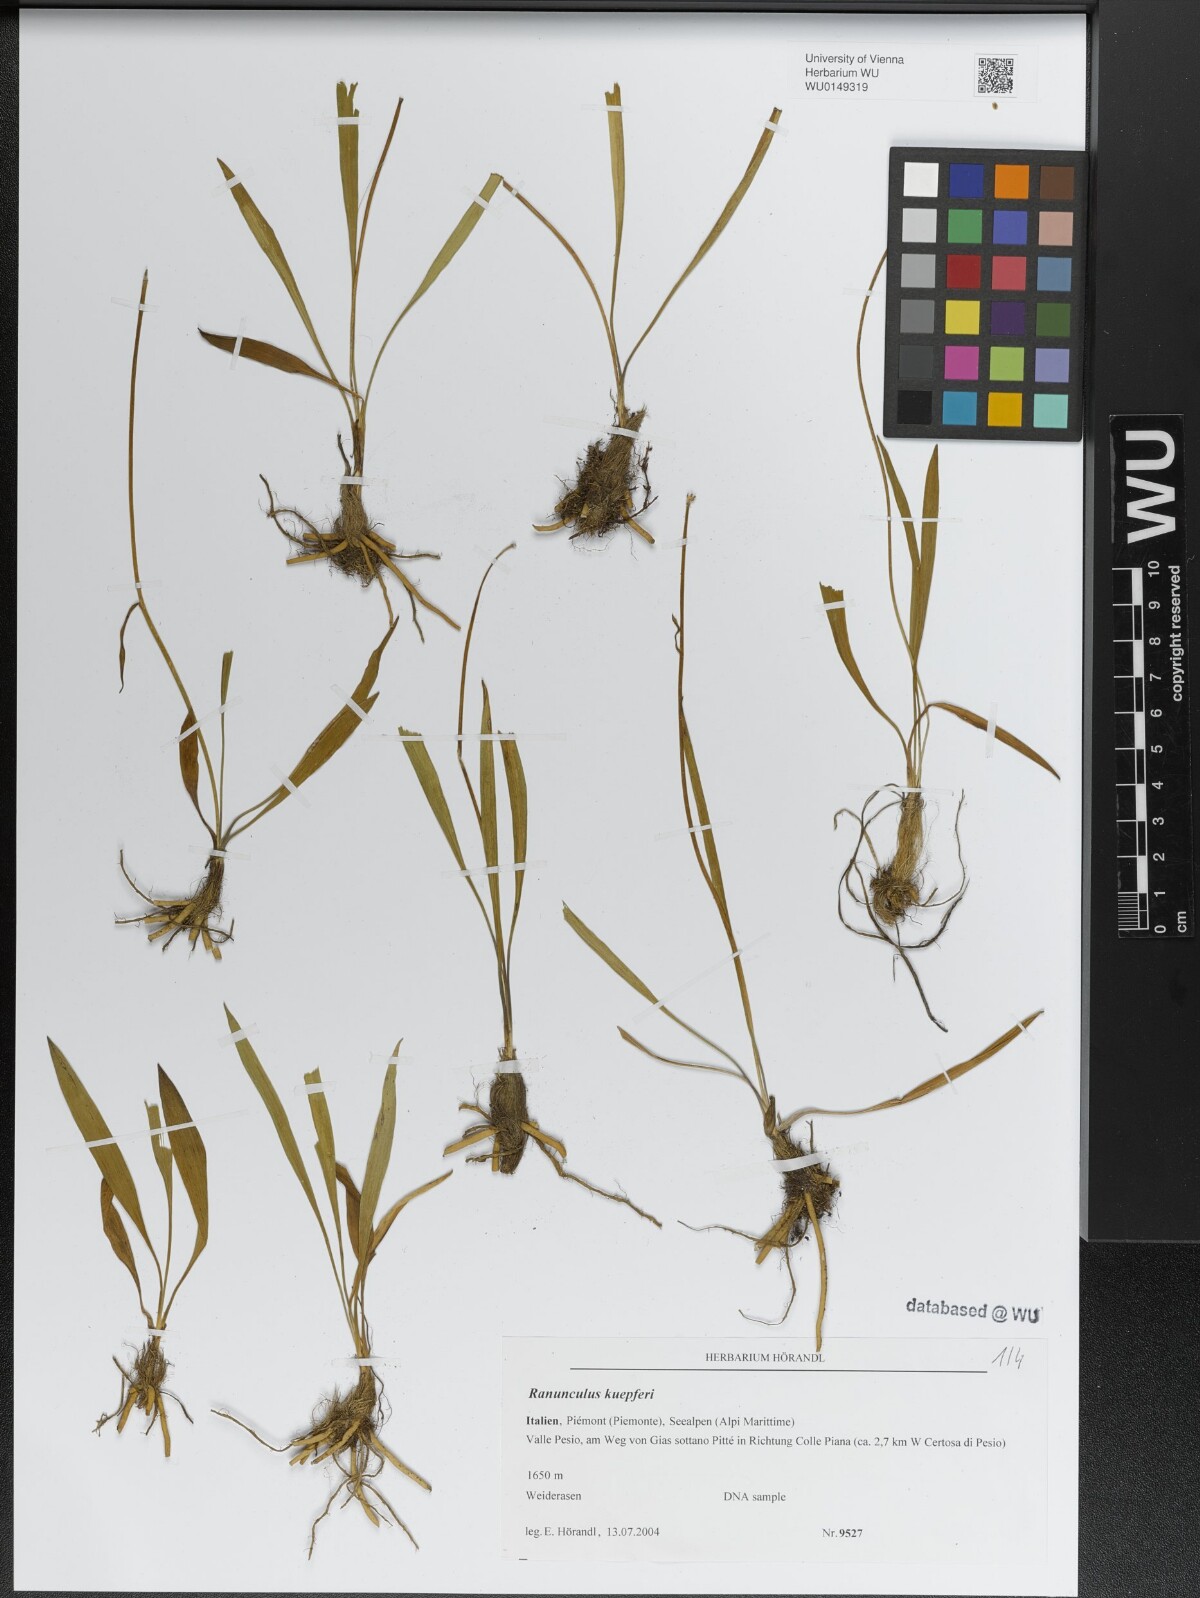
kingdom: Plantae
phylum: Tracheophyta
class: Magnoliopsida
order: Ranunculales
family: Ranunculaceae
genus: Ranunculus
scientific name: Ranunculus kuepferi
